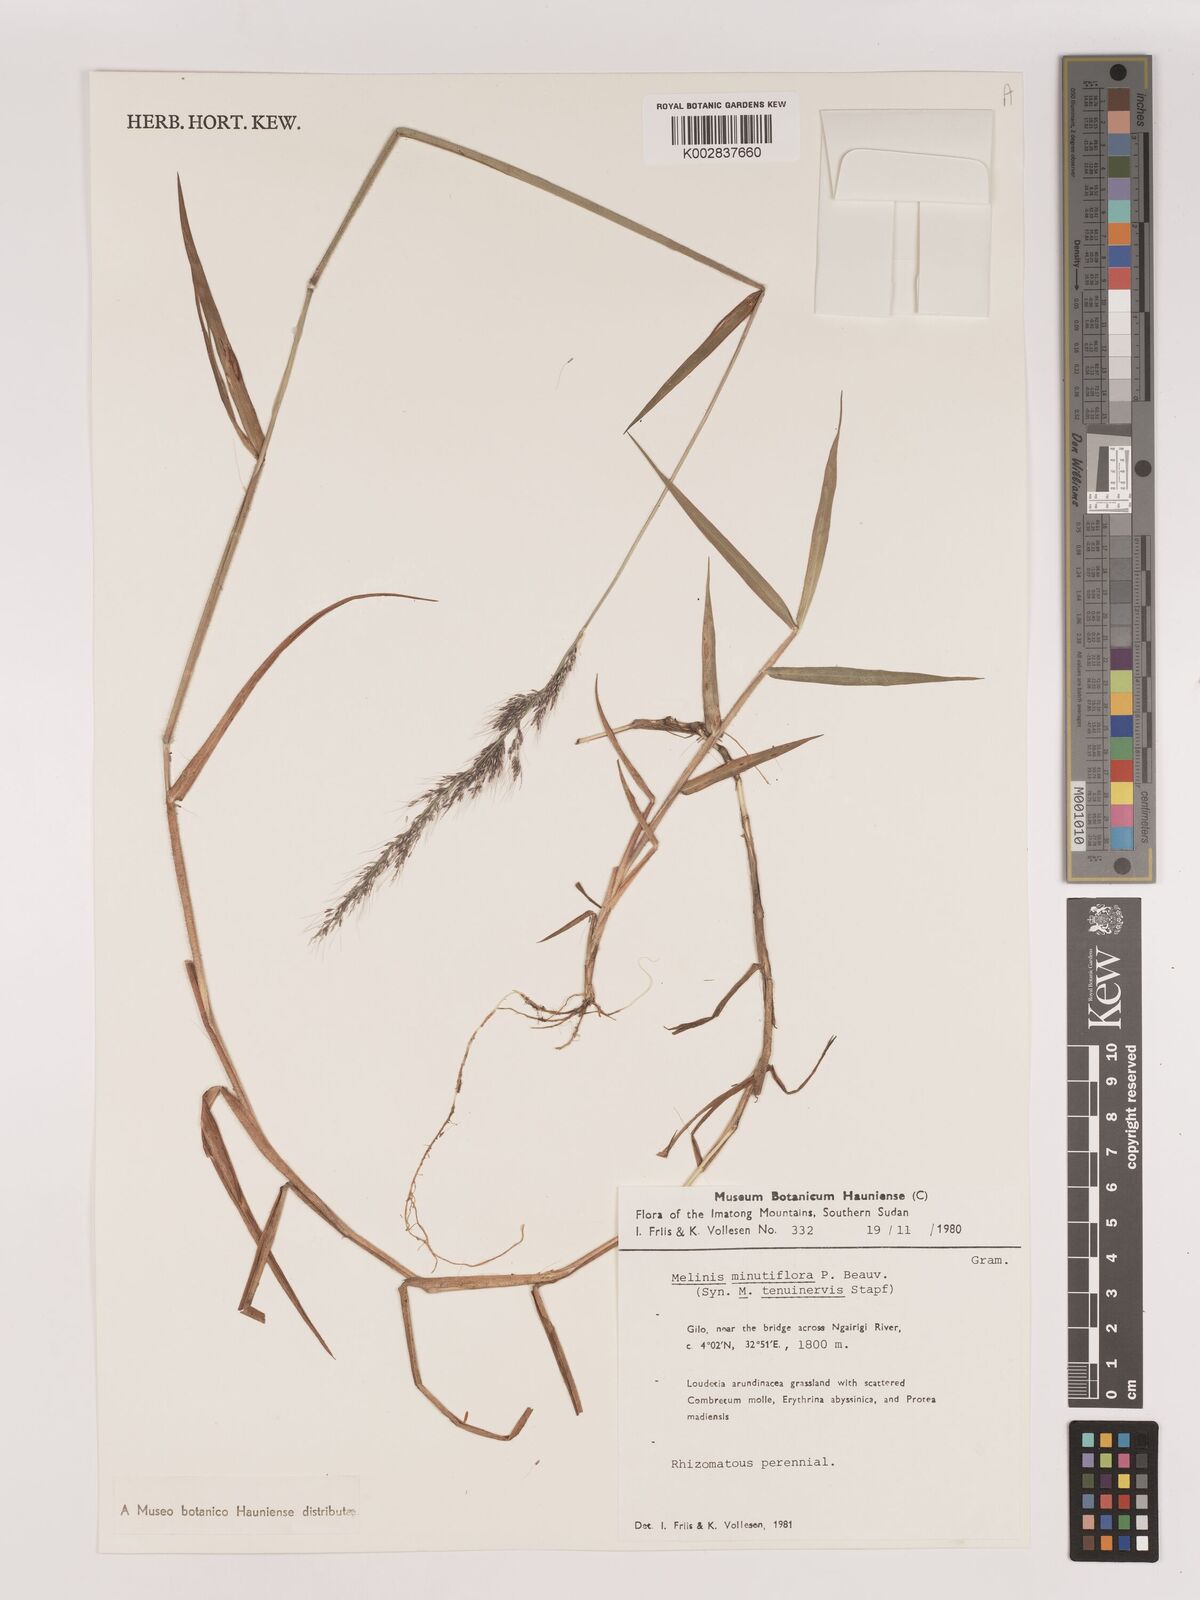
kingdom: Plantae
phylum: Tracheophyta
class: Liliopsida
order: Poales
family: Poaceae
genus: Melinis
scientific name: Melinis minutiflora
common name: Molassesgrass
